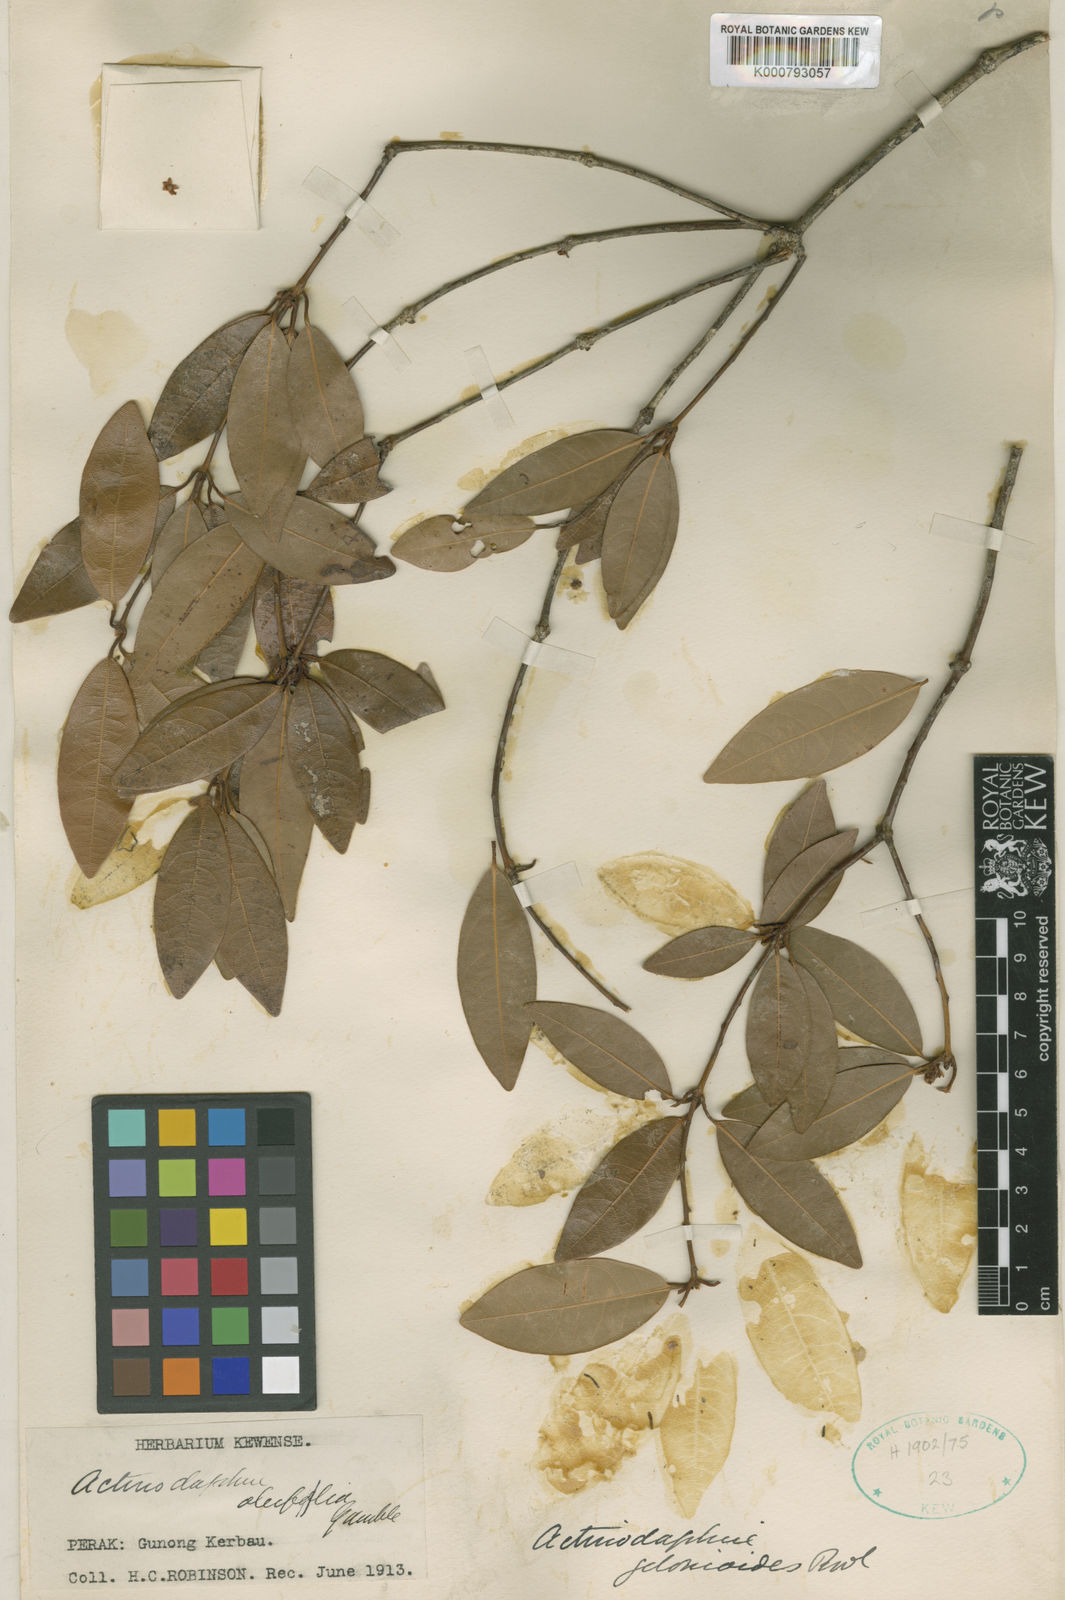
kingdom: Plantae
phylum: Tracheophyta
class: Magnoliopsida
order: Laurales
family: Lauraceae
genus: Actinodaphne
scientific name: Actinodaphne oleifolia
